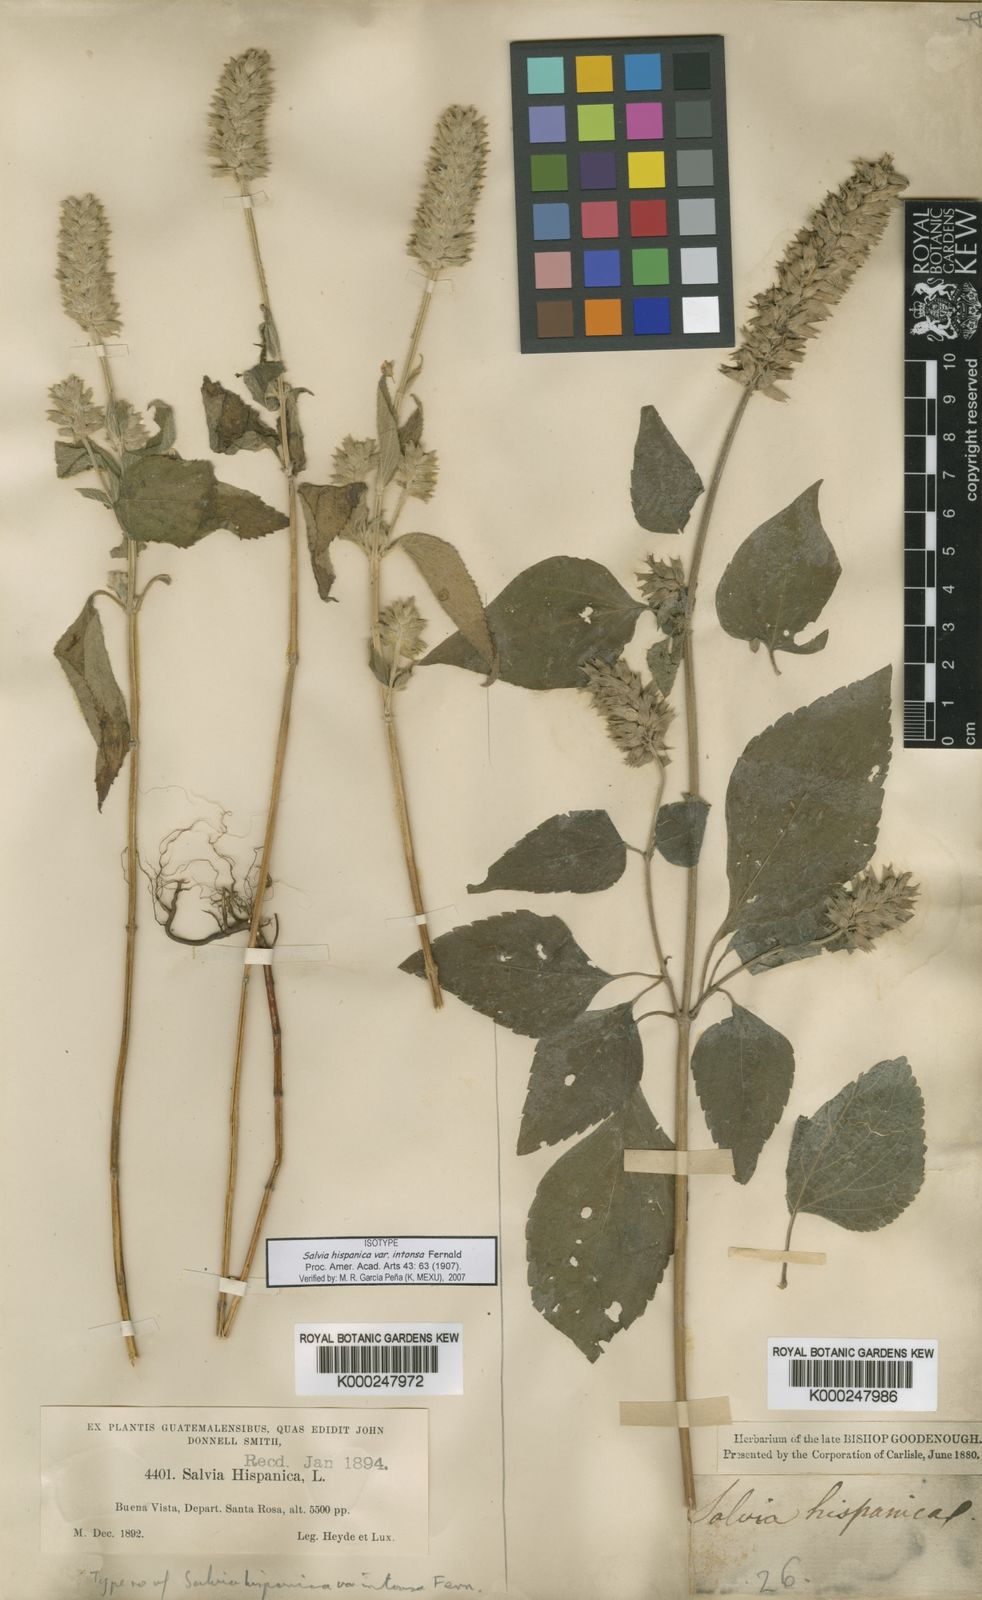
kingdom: Plantae
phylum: Tracheophyta
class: Magnoliopsida
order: Lamiales
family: Lamiaceae
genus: Salvia
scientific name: Salvia hispanica
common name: Chia
